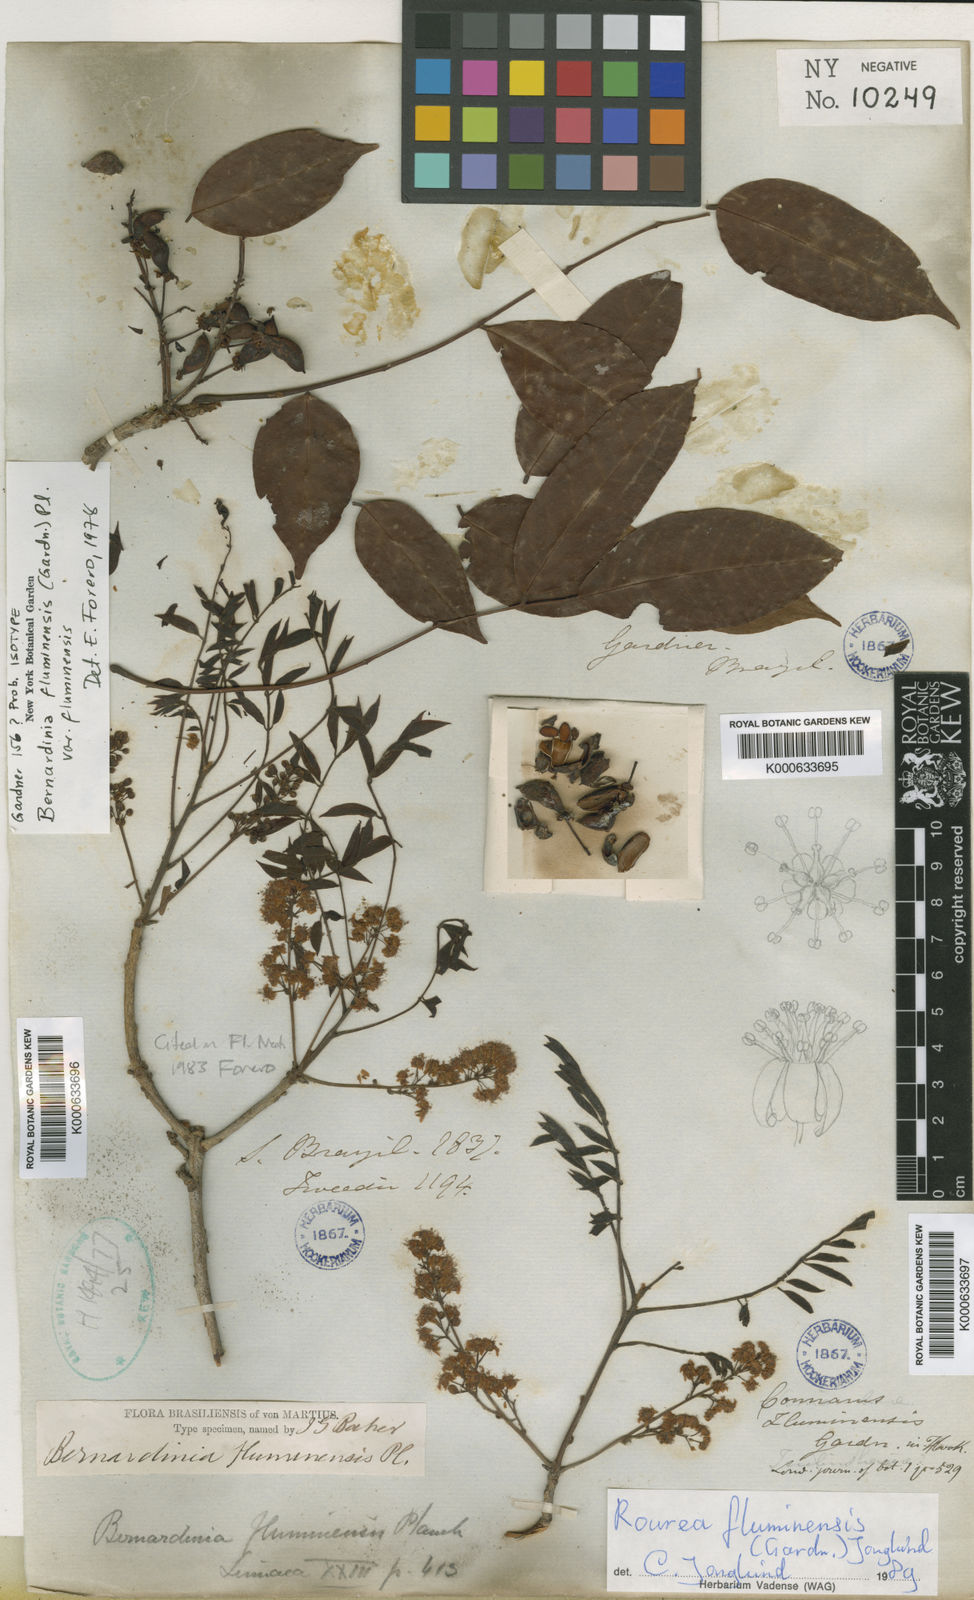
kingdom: Plantae
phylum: Tracheophyta
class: Magnoliopsida
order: Oxalidales
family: Connaraceae
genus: Rourea
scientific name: Rourea fluminensis
